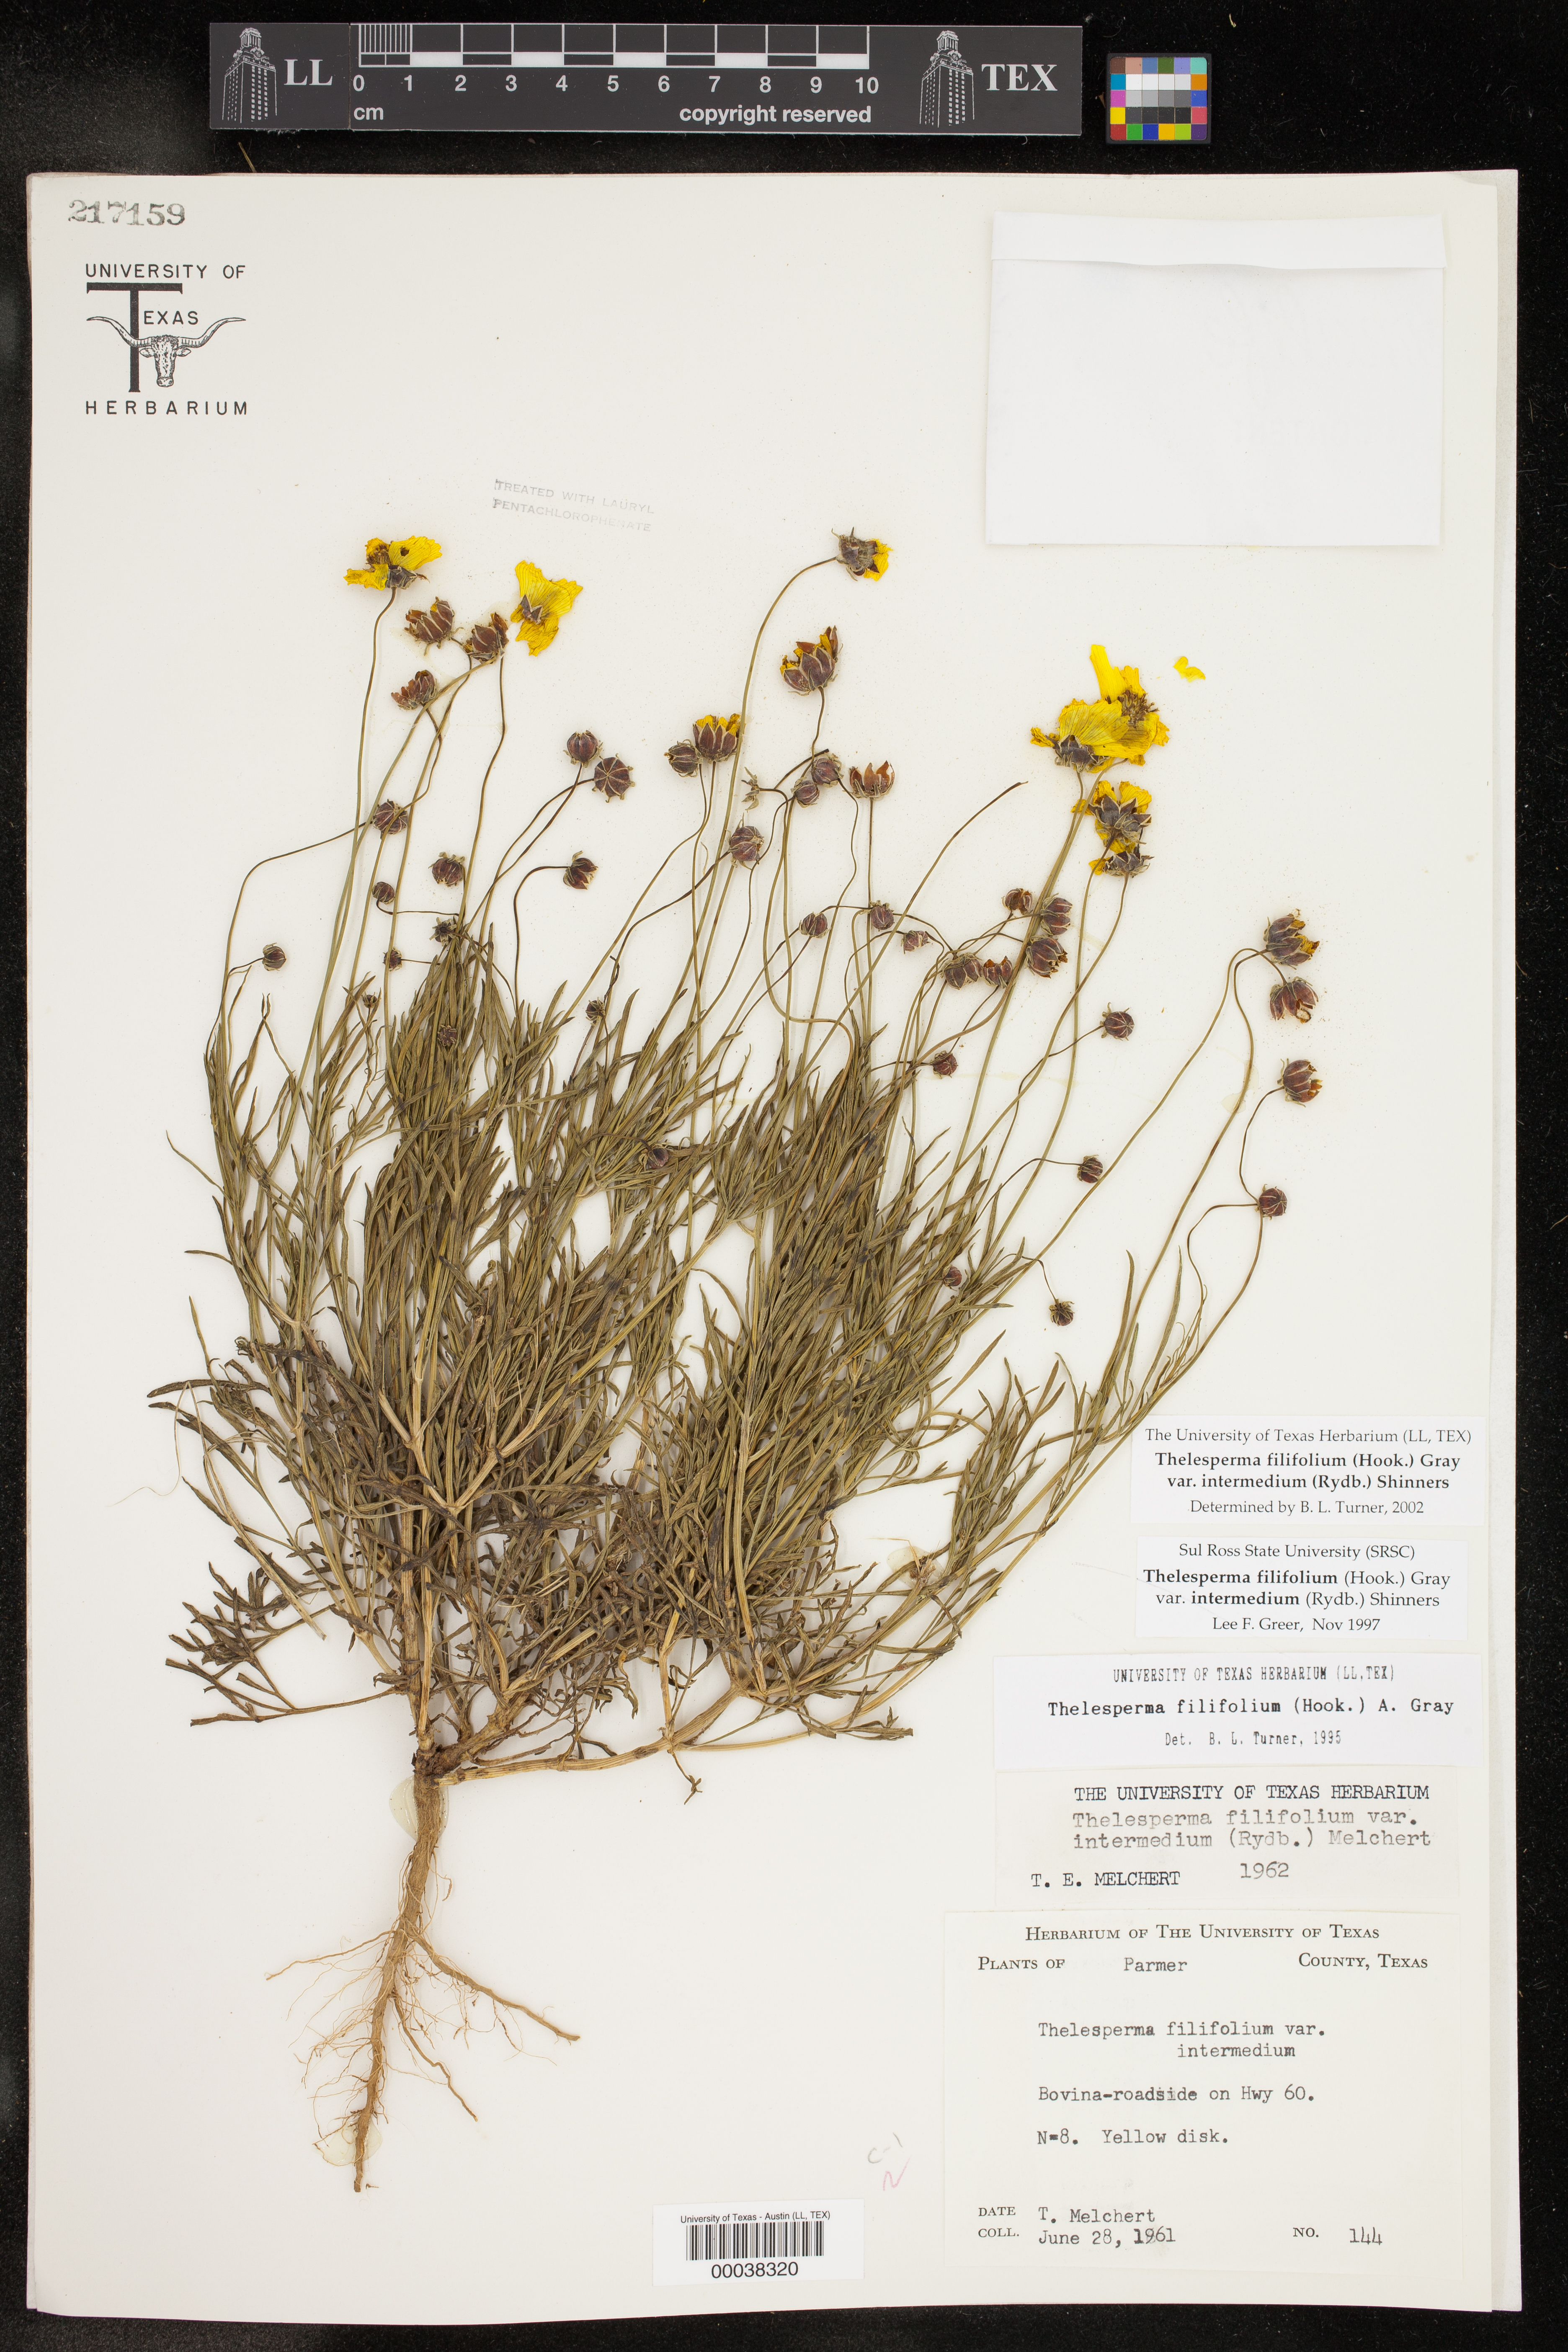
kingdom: Plantae
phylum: Tracheophyta
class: Magnoliopsida
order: Asterales
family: Asteraceae
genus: Thelesperma
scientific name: Thelesperma filifolium
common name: Stiff greenthread
